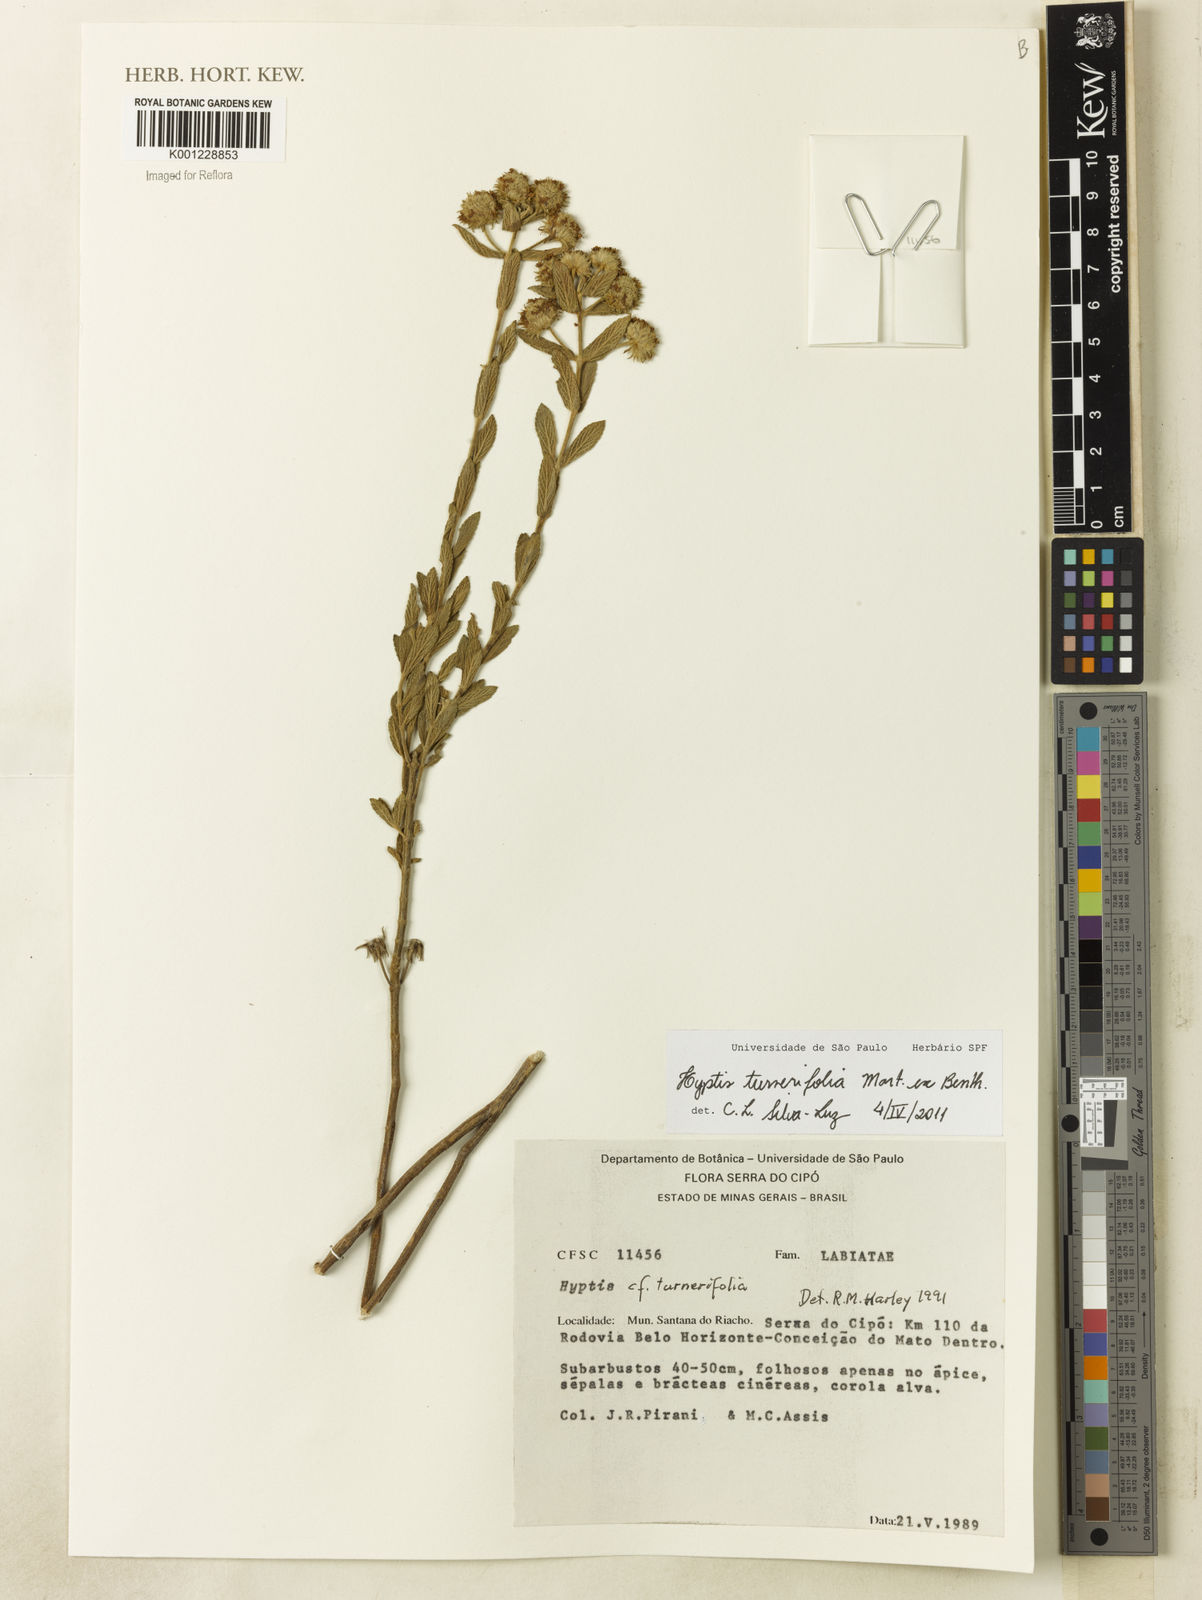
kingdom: Plantae
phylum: Tracheophyta
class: Magnoliopsida
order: Lamiales
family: Lamiaceae
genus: Hyptis
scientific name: Hyptis turnerifolia
